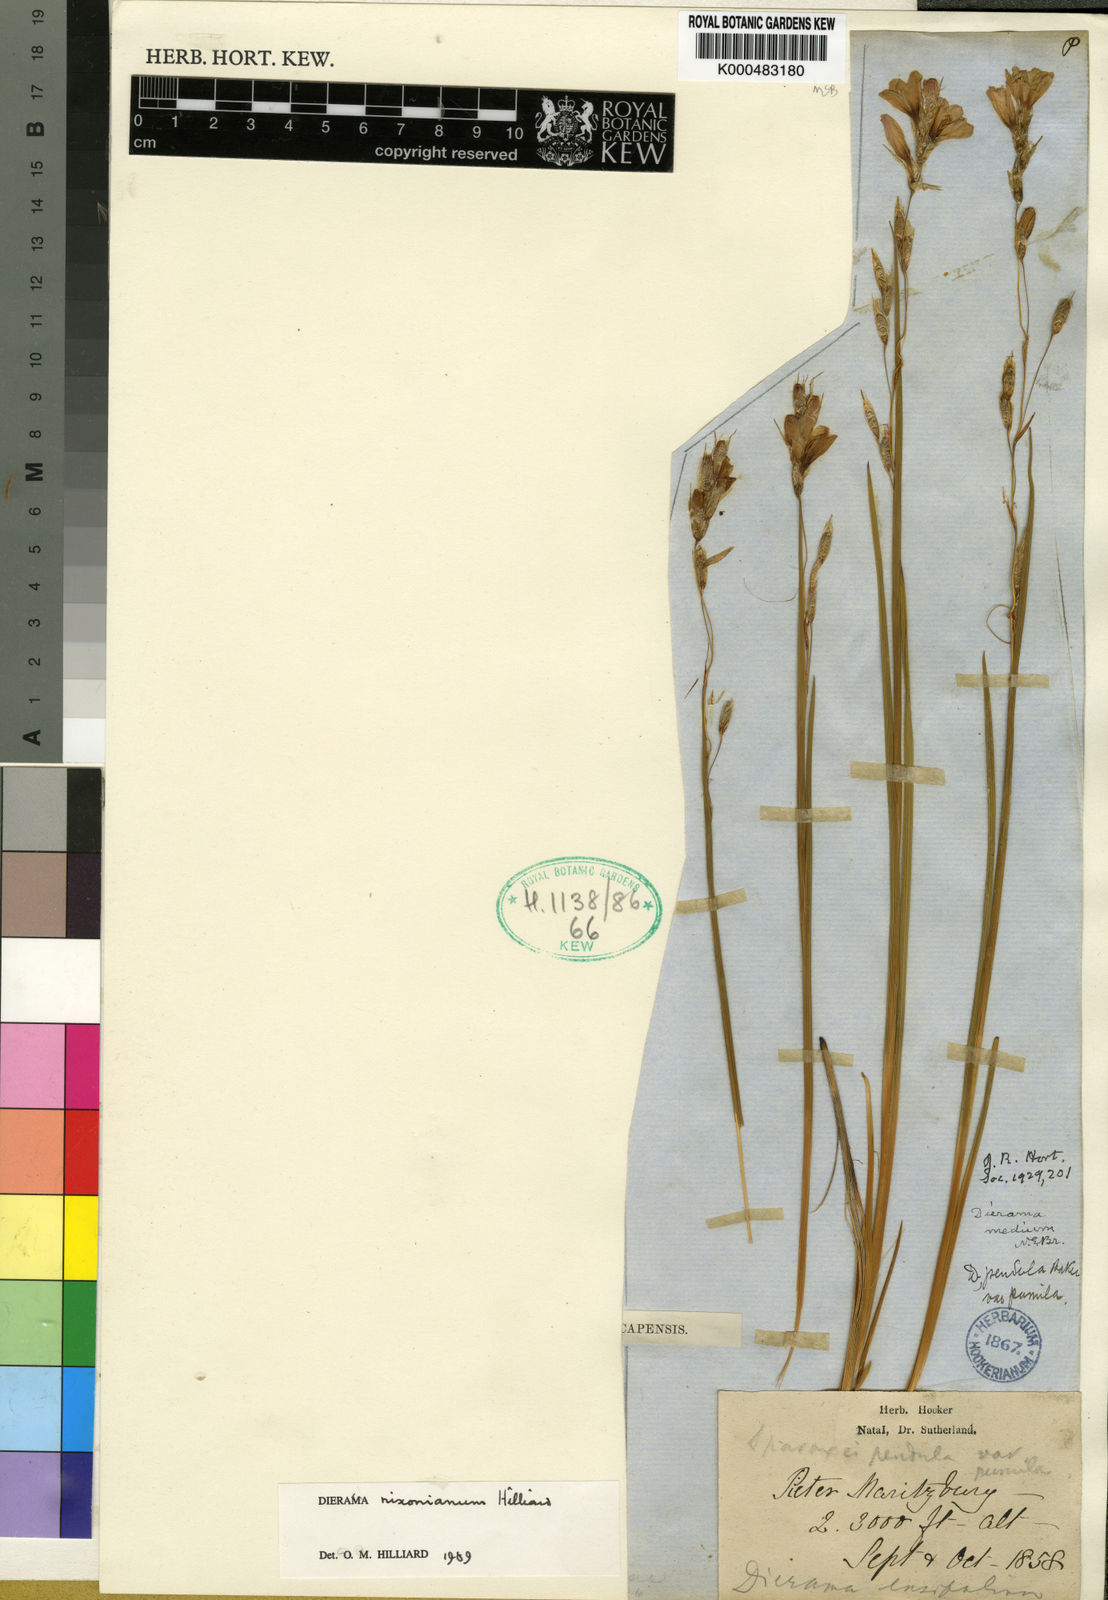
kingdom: Plantae
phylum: Tracheophyta
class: Liliopsida
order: Asparagales
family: Iridaceae
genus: Dierama
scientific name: Dierama nixonianum
